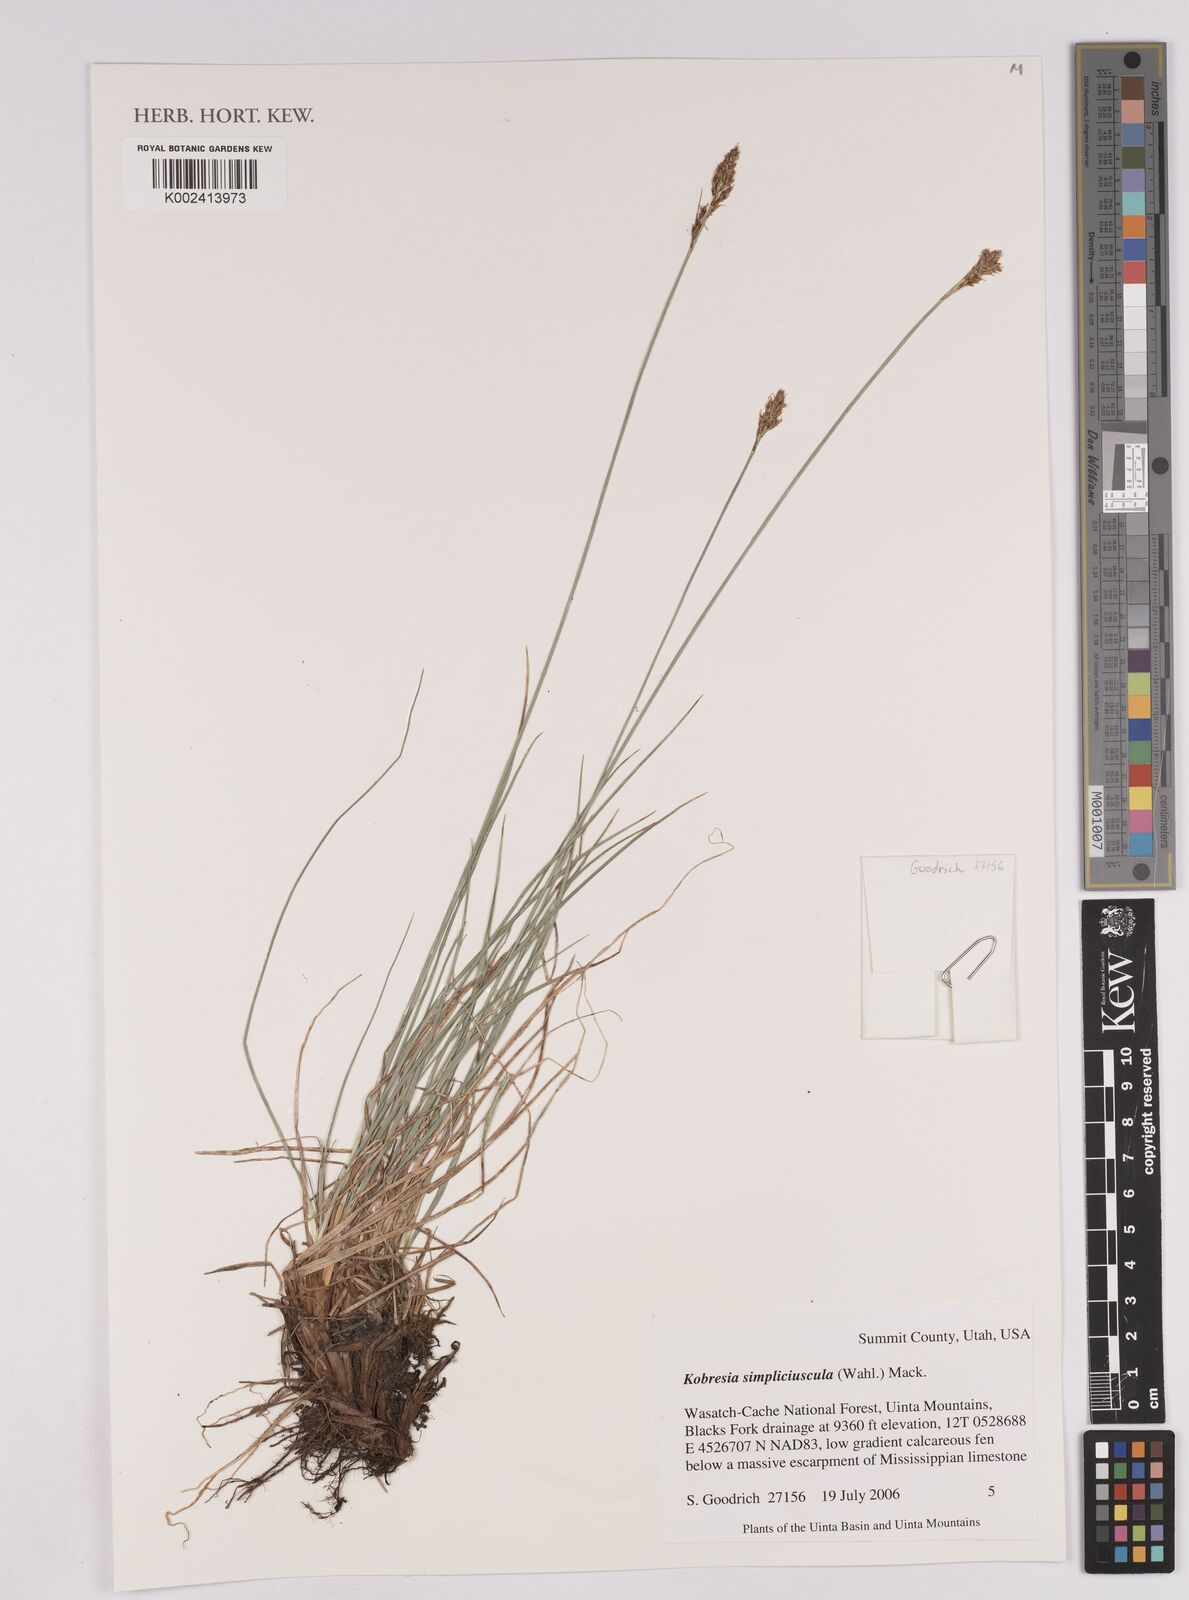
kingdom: Plantae
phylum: Tracheophyta
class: Liliopsida
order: Poales
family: Cyperaceae
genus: Carex
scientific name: Carex simpliciuscula
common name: Simple bog sedge
